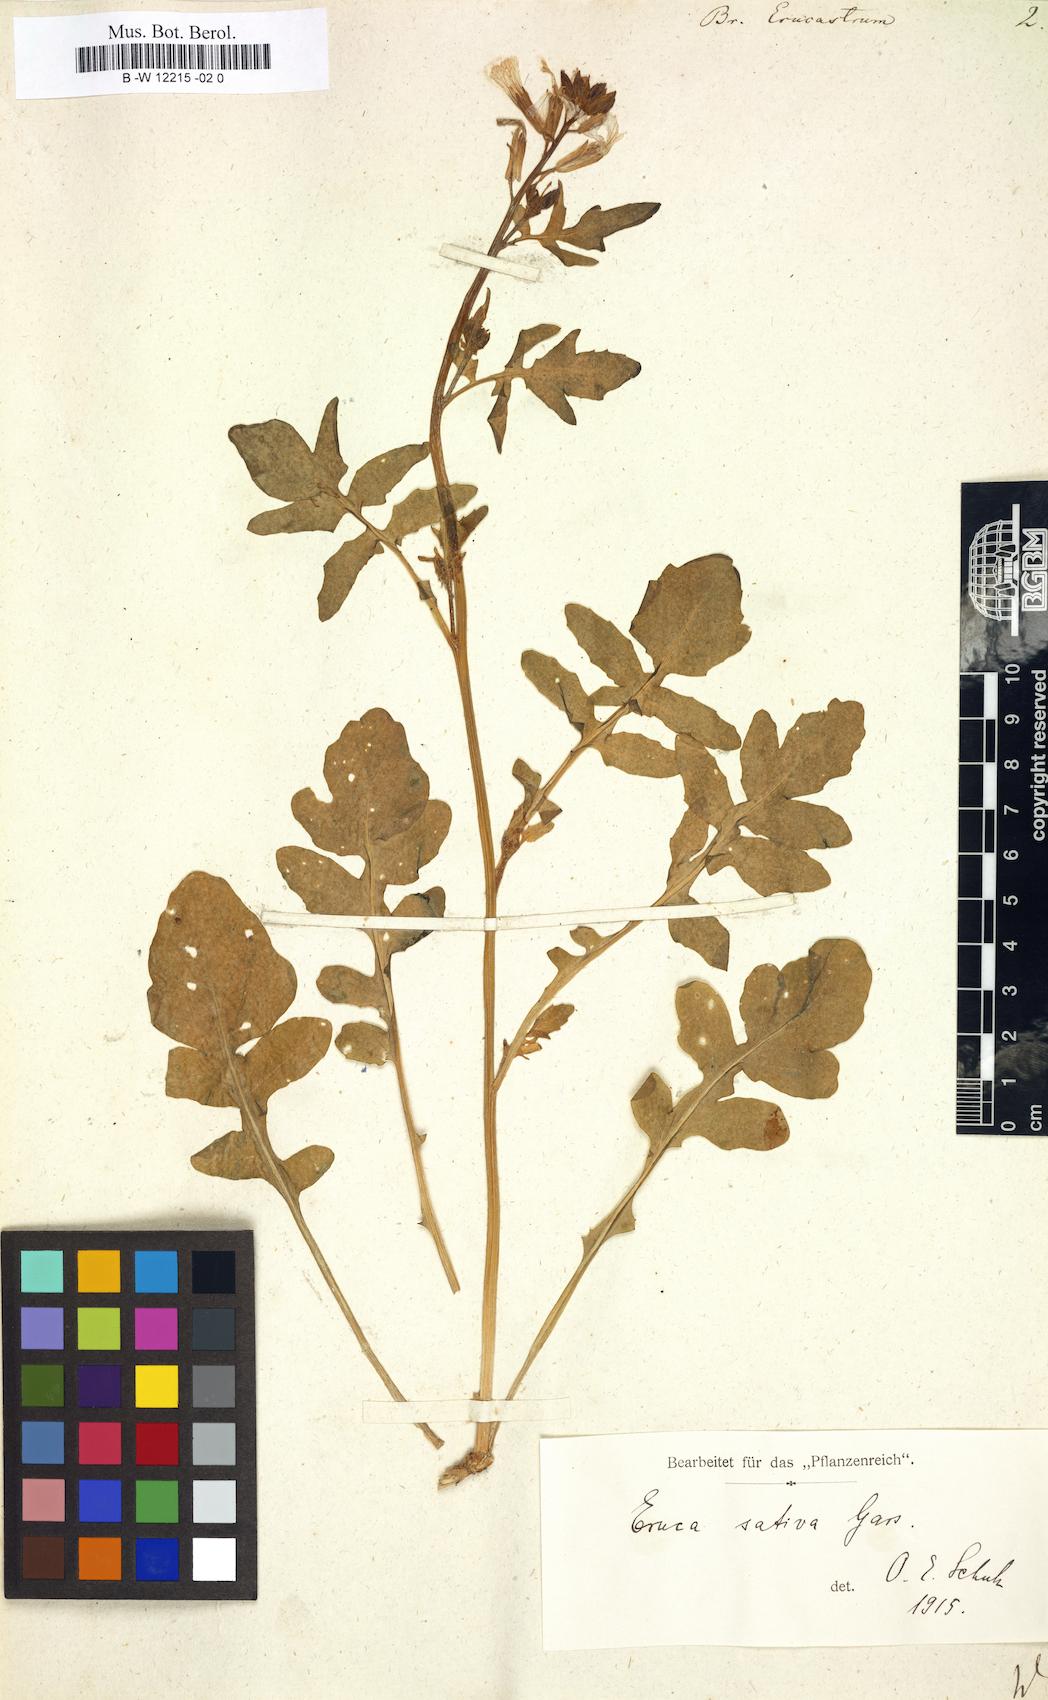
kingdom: Plantae
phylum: Tracheophyta
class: Magnoliopsida
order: Brassicales
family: Brassicaceae
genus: Brassica
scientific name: Brassica erucastrum
